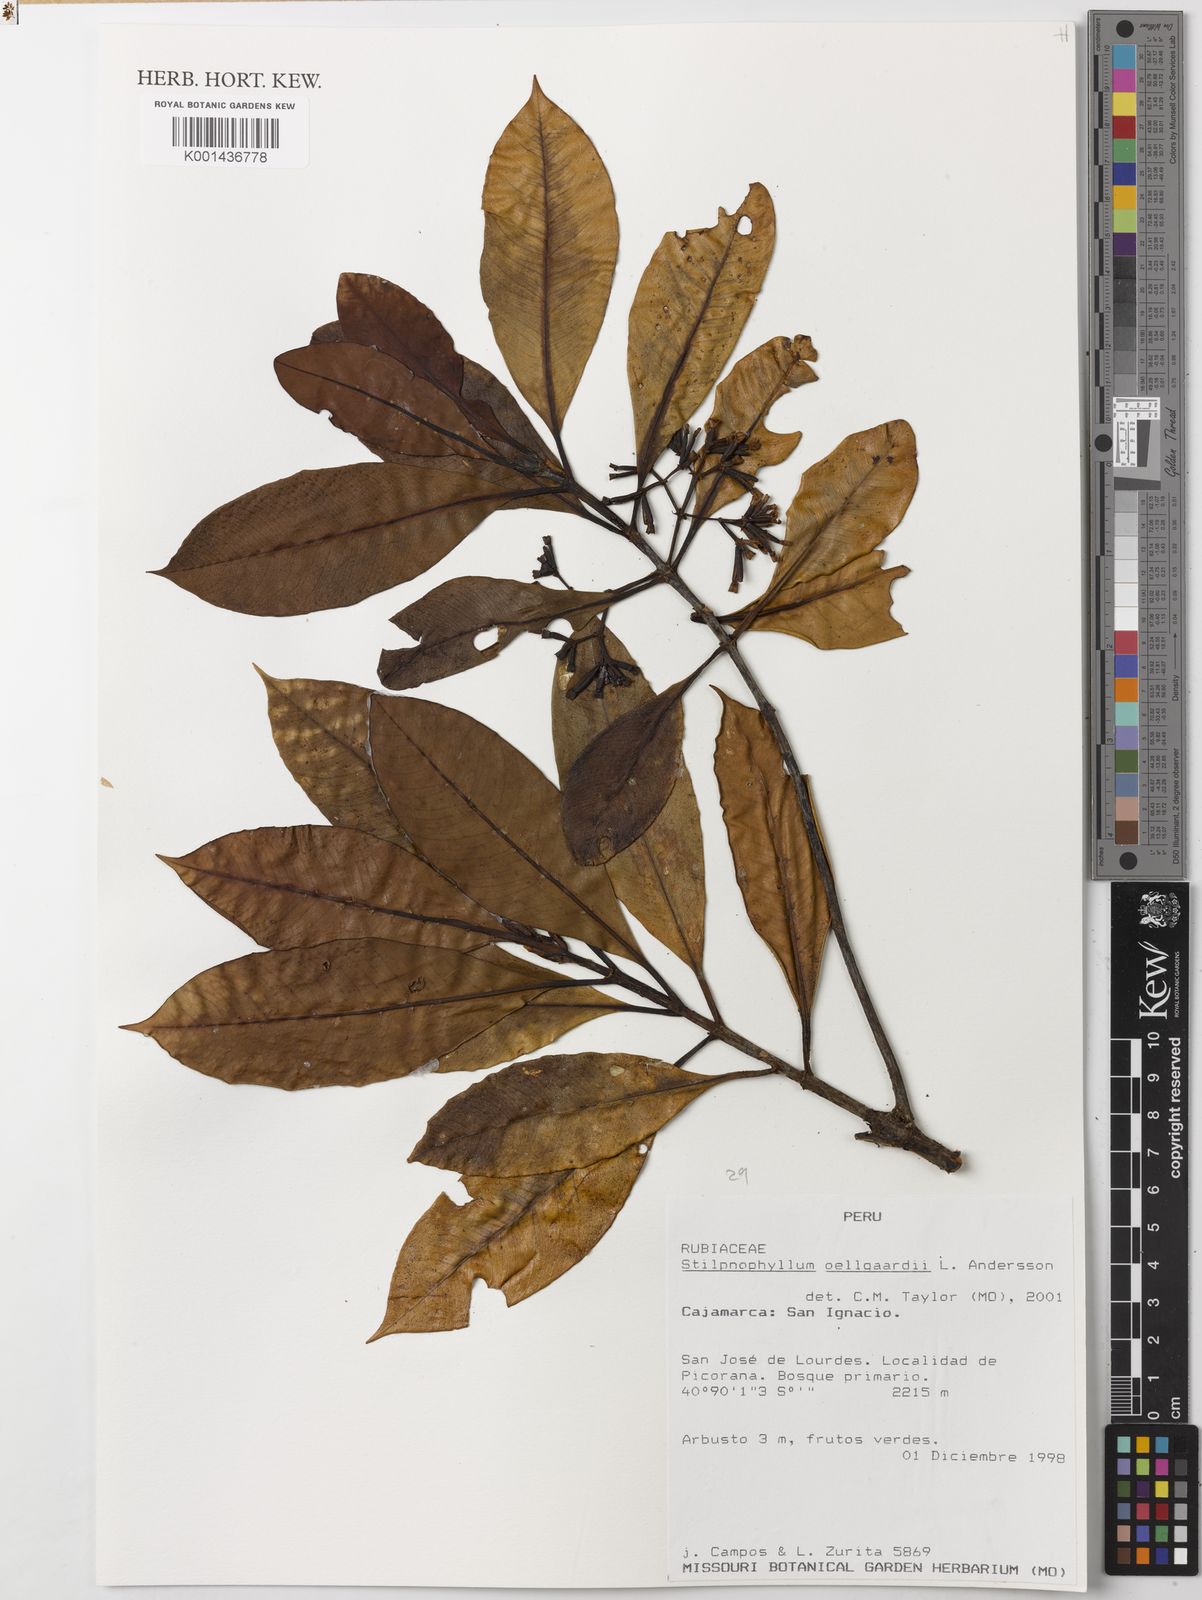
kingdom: Plantae
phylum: Tracheophyta
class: Magnoliopsida
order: Gentianales
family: Rubiaceae
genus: Stilpnophyllum
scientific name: Stilpnophyllum oellgaardii
